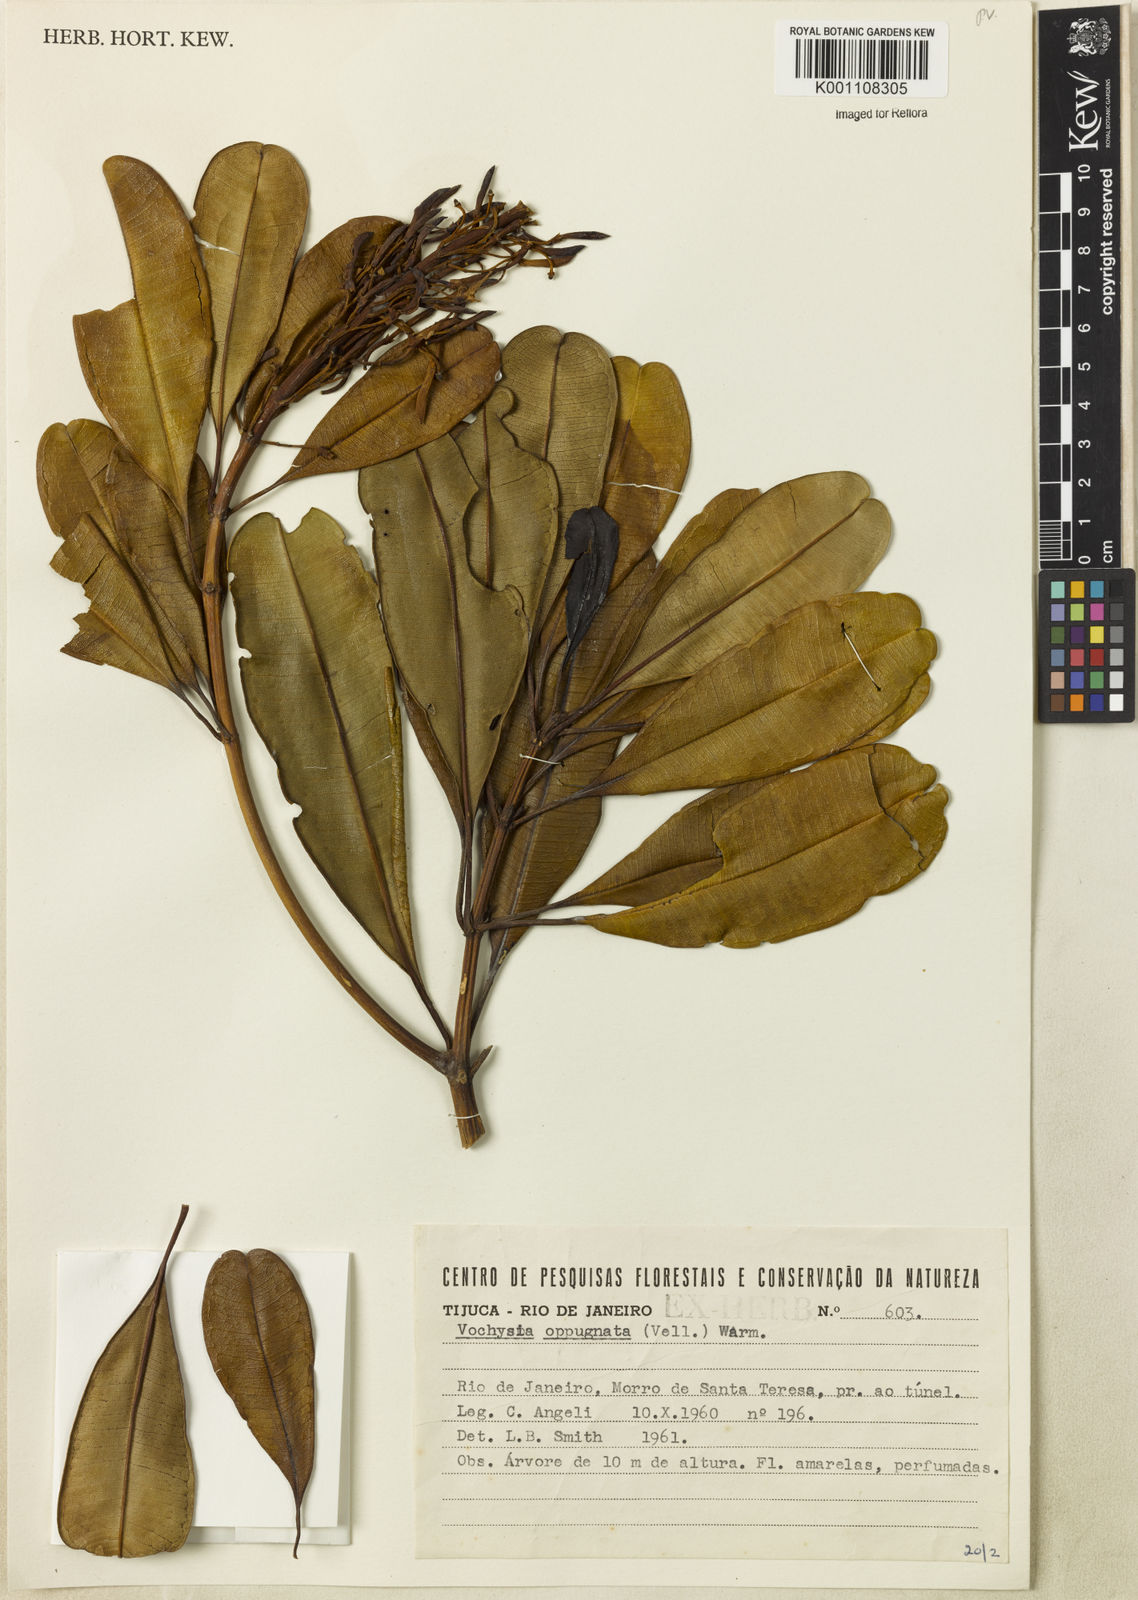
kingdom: Plantae
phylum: Tracheophyta
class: Magnoliopsida
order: Myrtales
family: Vochysiaceae
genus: Vochysia
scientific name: Vochysia oppugnata
